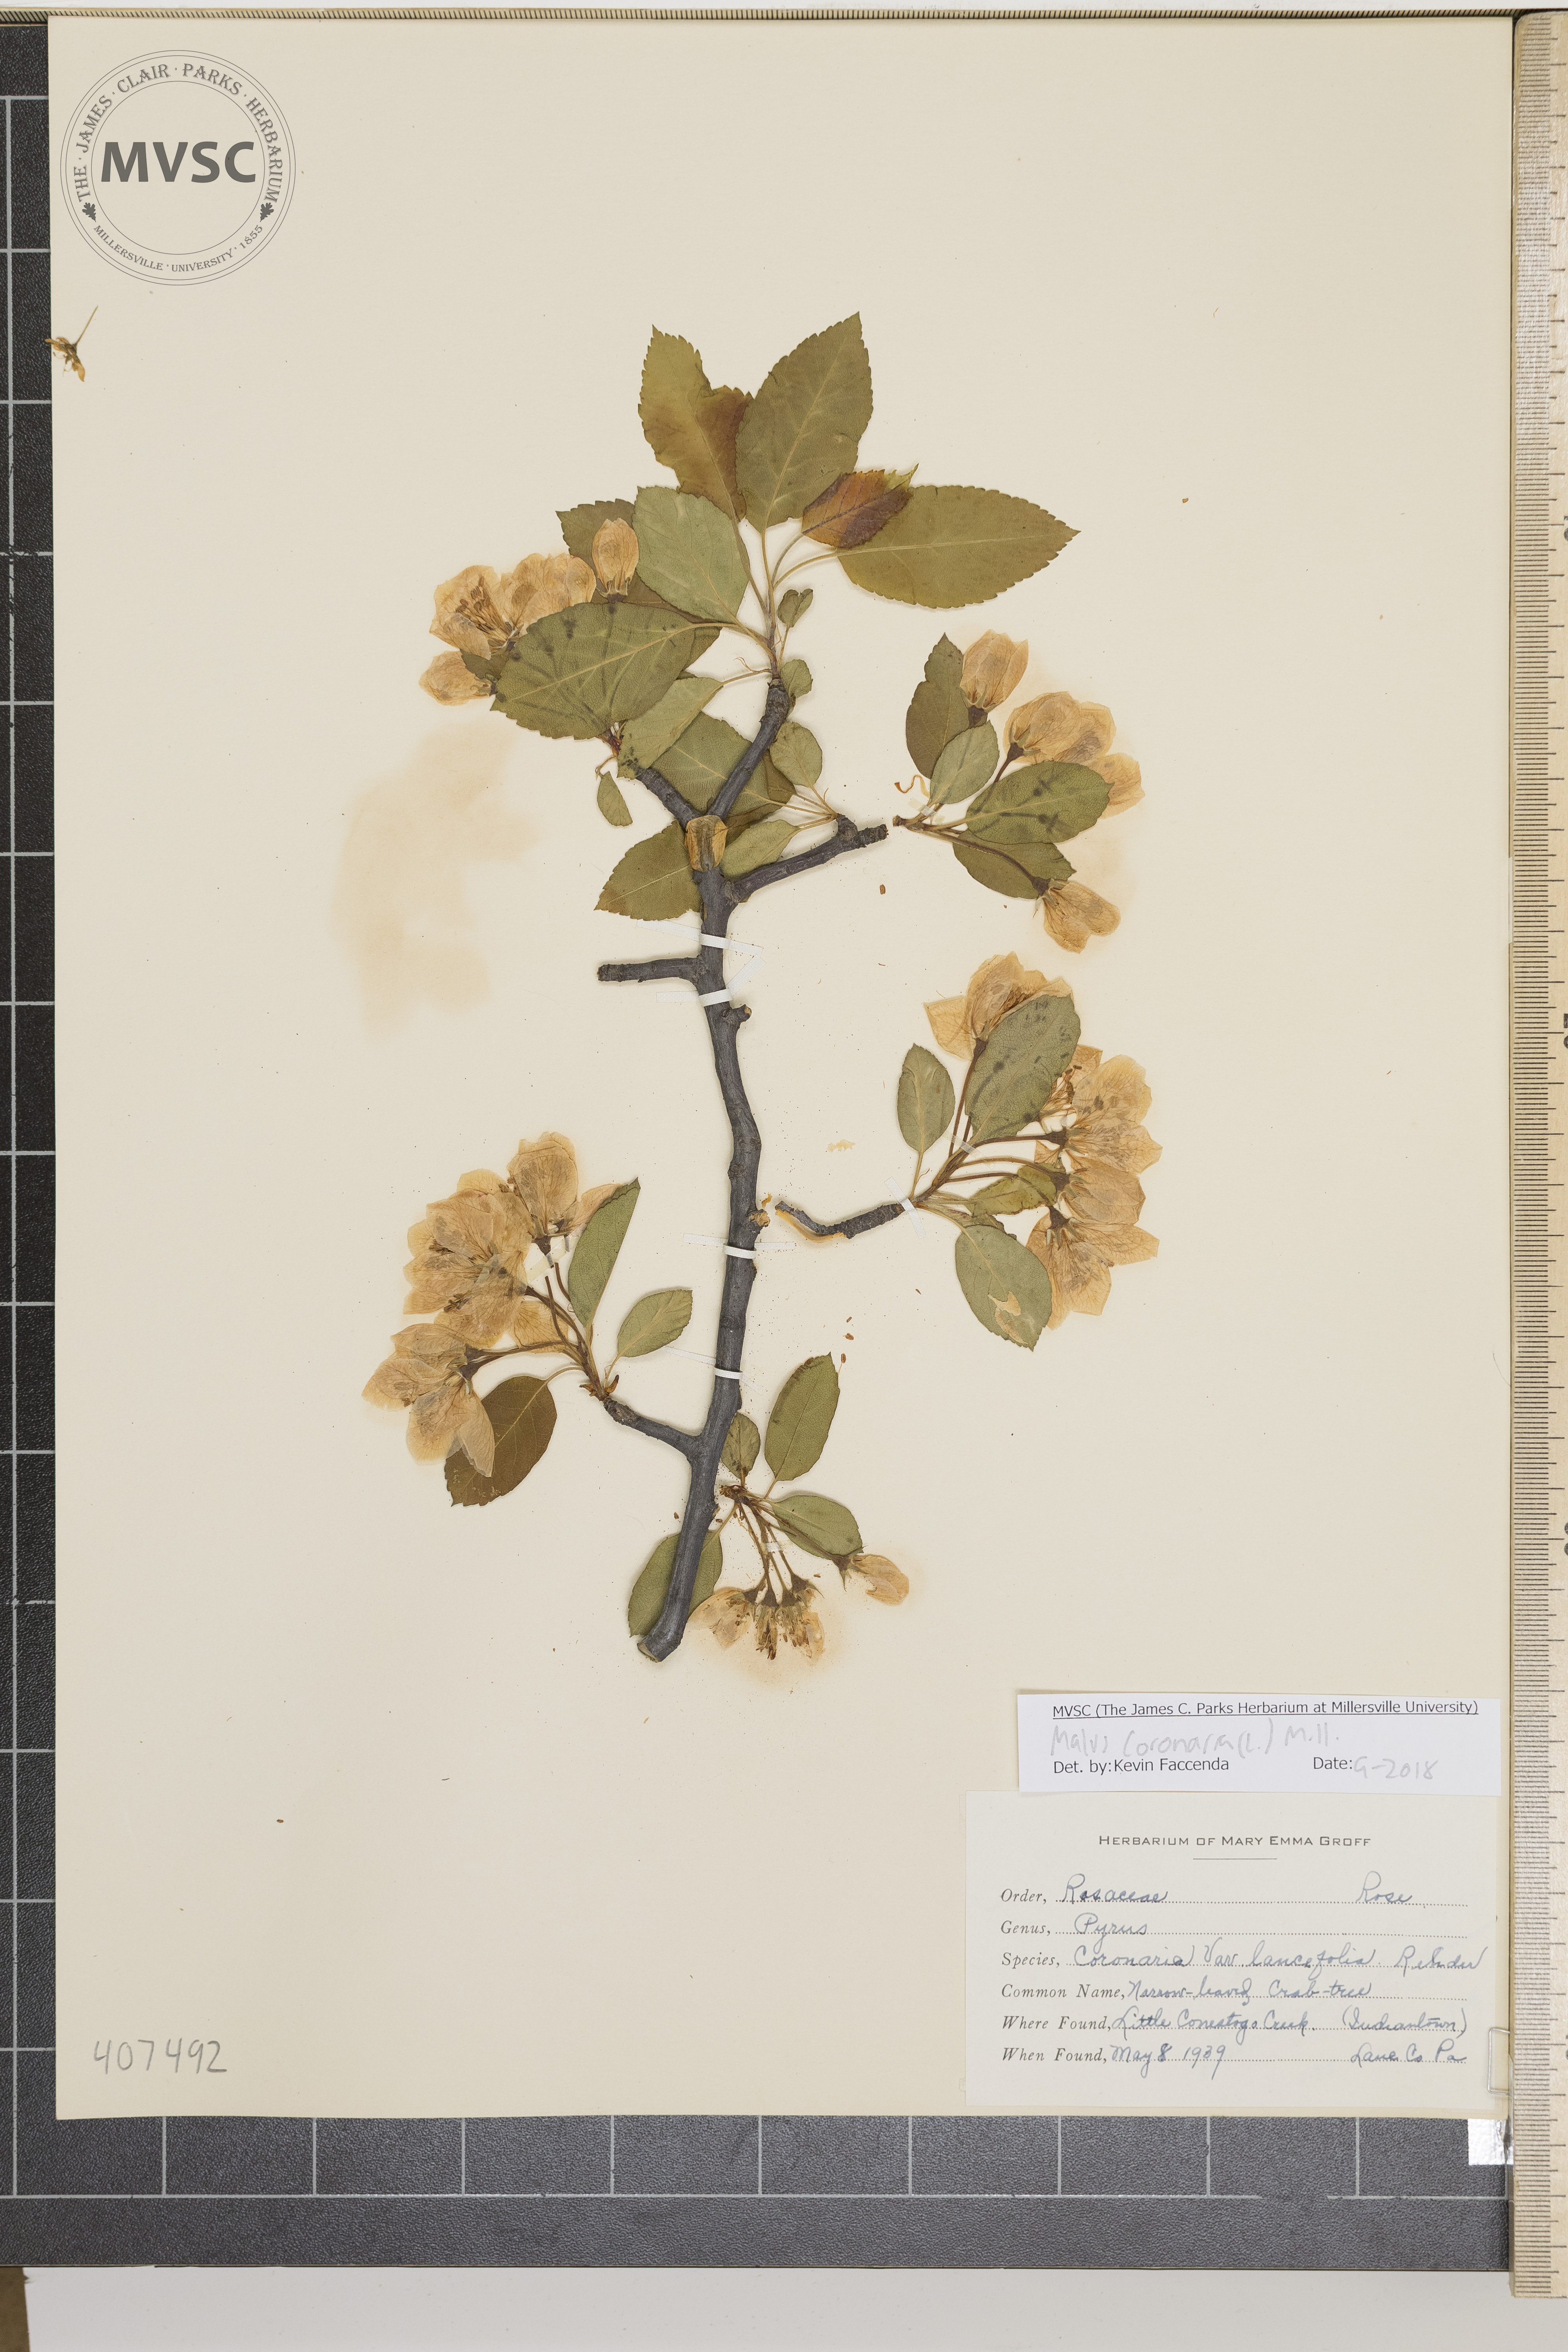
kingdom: Plantae
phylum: Tracheophyta
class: Magnoliopsida
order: Rosales
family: Rosaceae
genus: Malus
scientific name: Malus coronaria
